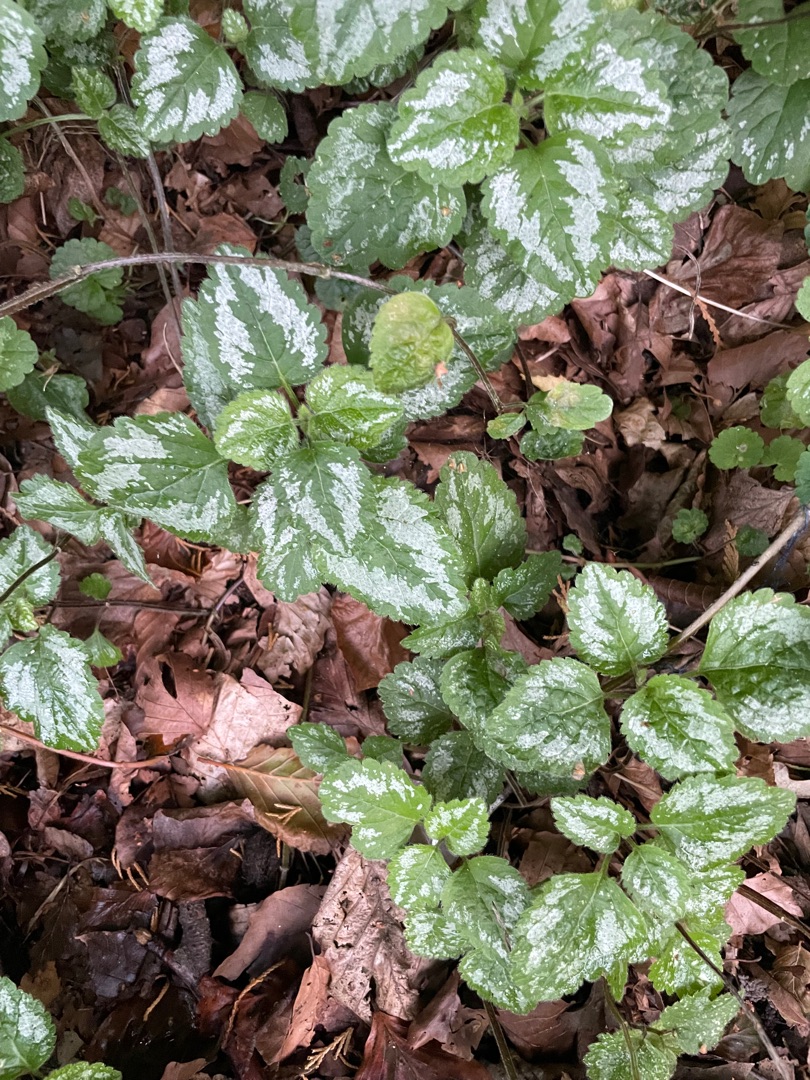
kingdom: Plantae
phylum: Tracheophyta
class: Magnoliopsida
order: Lamiales
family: Lamiaceae
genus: Lamium
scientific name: Lamium galeobdolon
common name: Have-guldnælde
